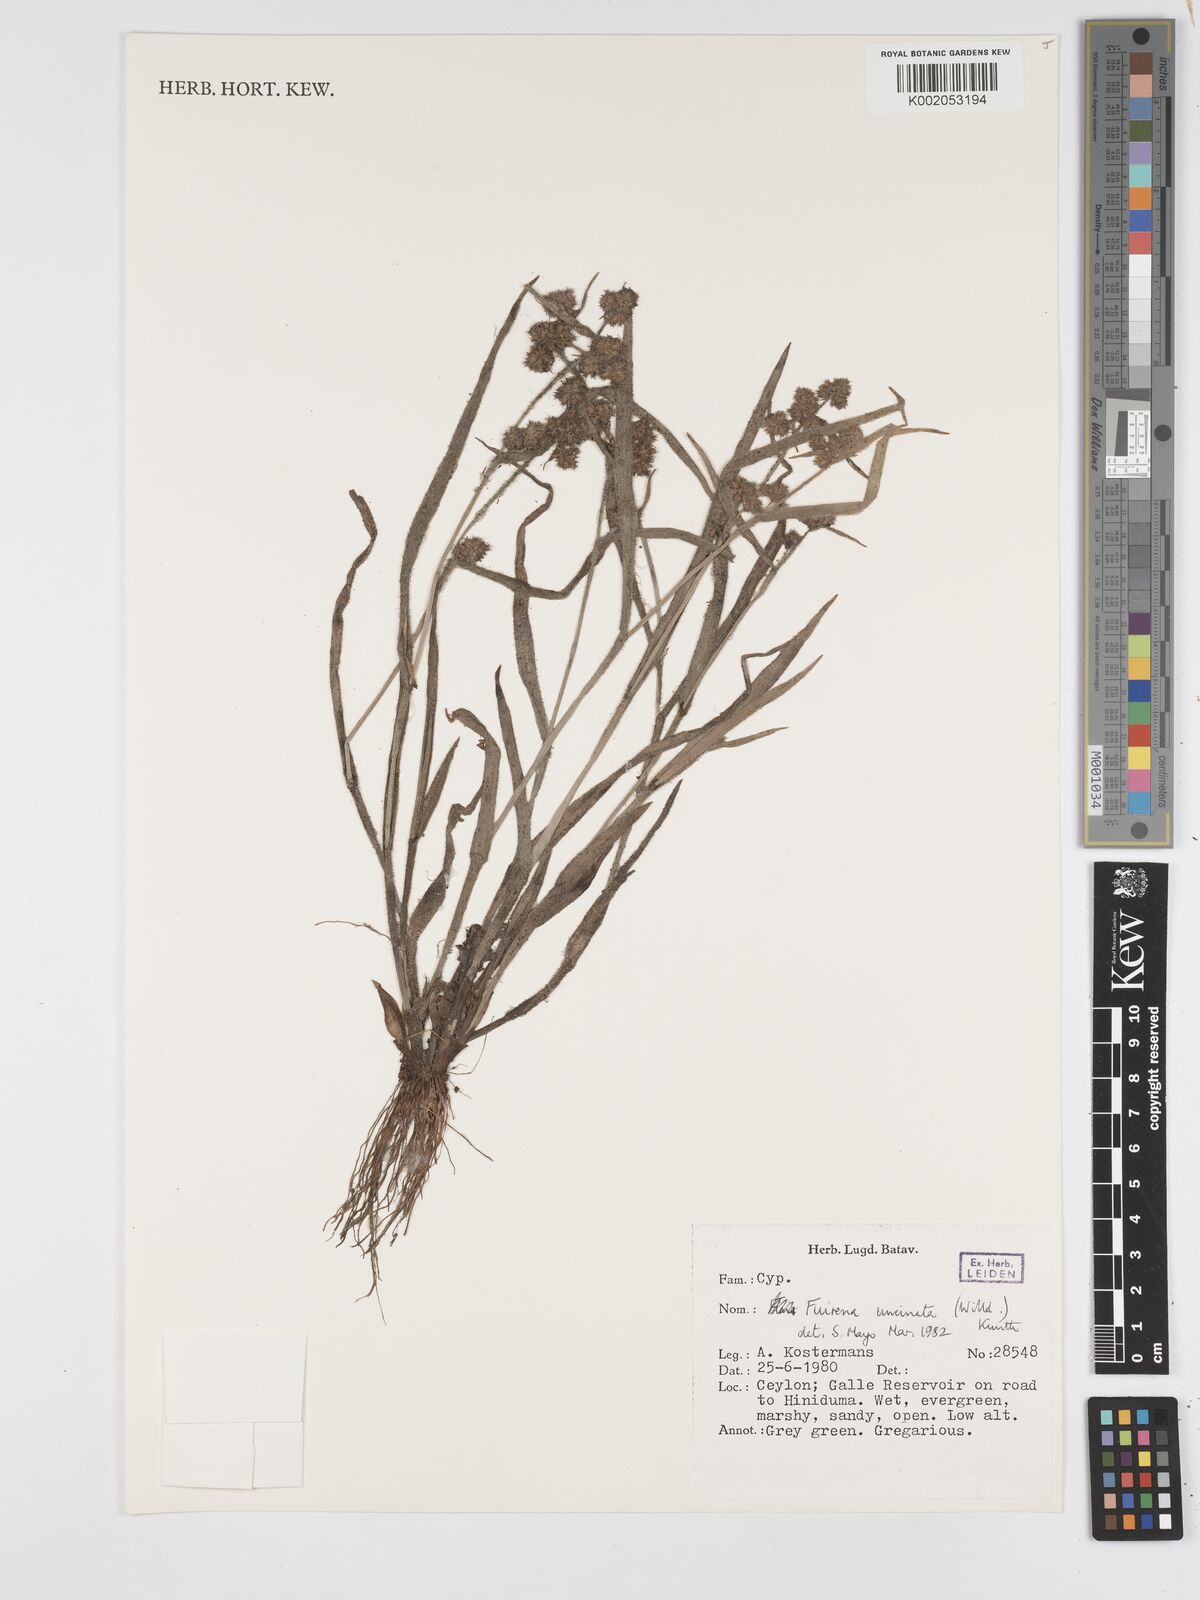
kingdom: Plantae
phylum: Tracheophyta
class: Liliopsida
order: Poales
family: Cyperaceae
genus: Fuirena
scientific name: Fuirena uncinata
